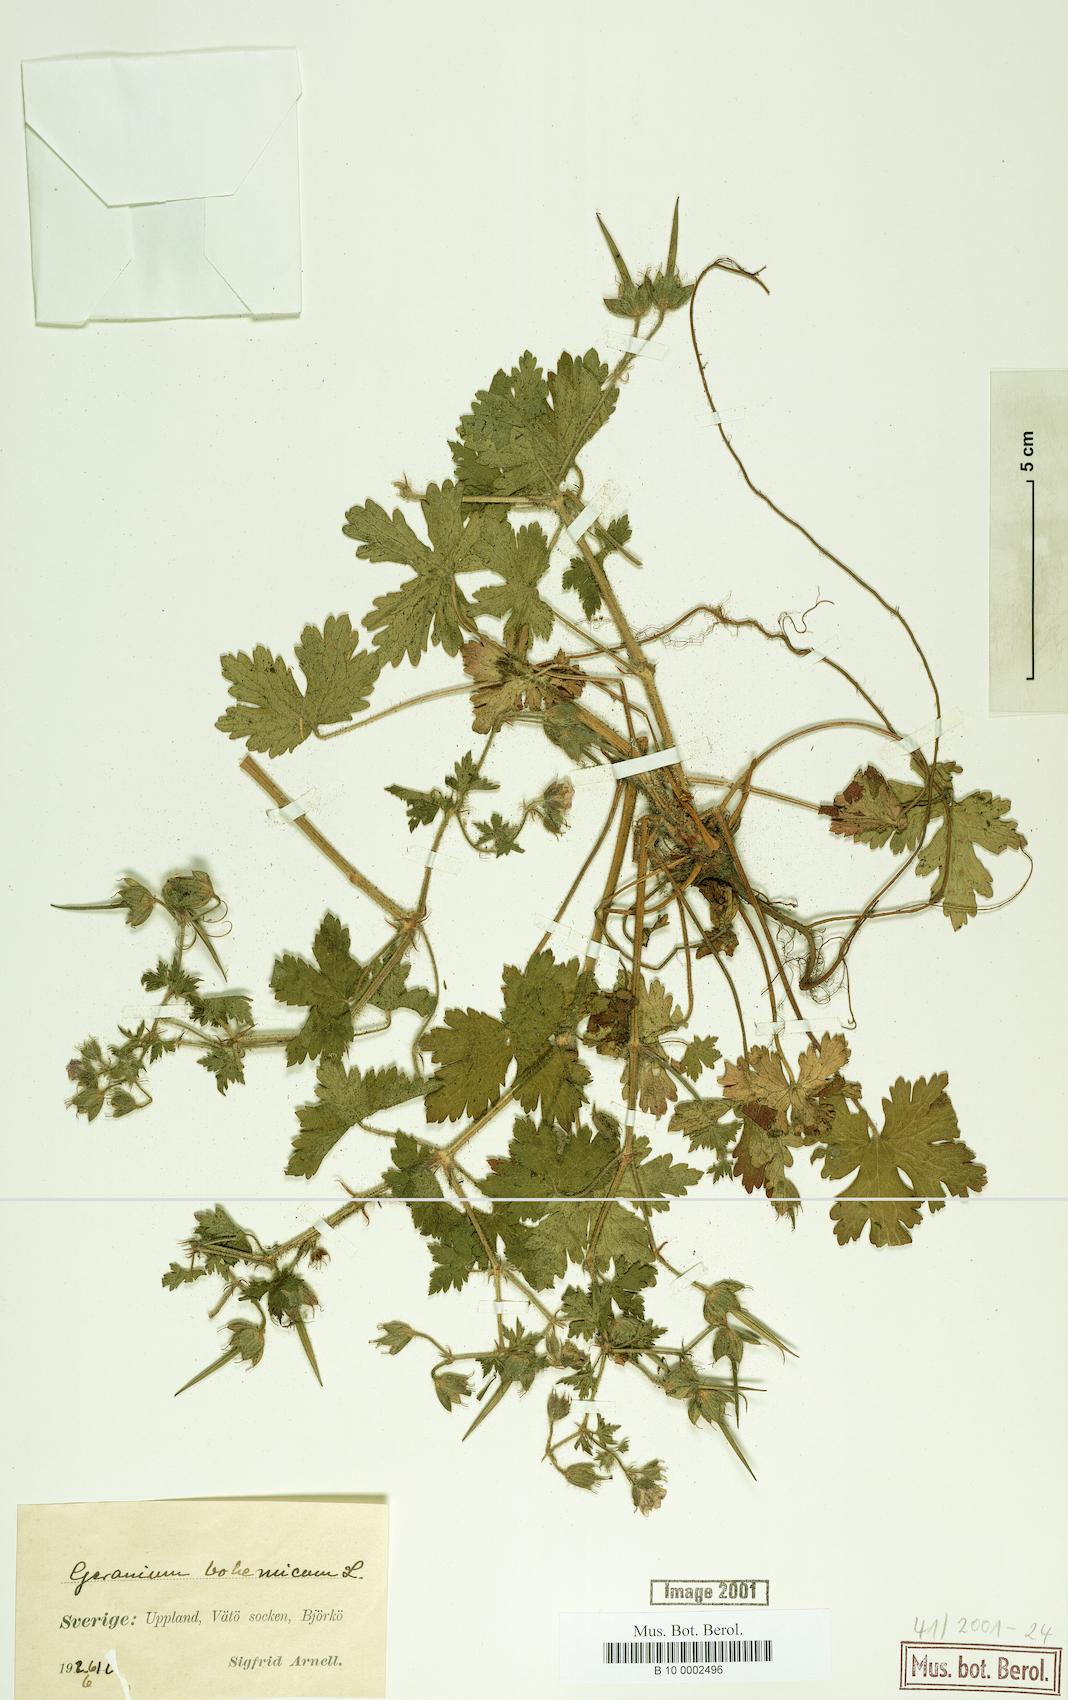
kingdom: Plantae
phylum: Tracheophyta
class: Magnoliopsida
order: Geraniales
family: Geraniaceae
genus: Geranium
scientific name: Geranium bohemicum
